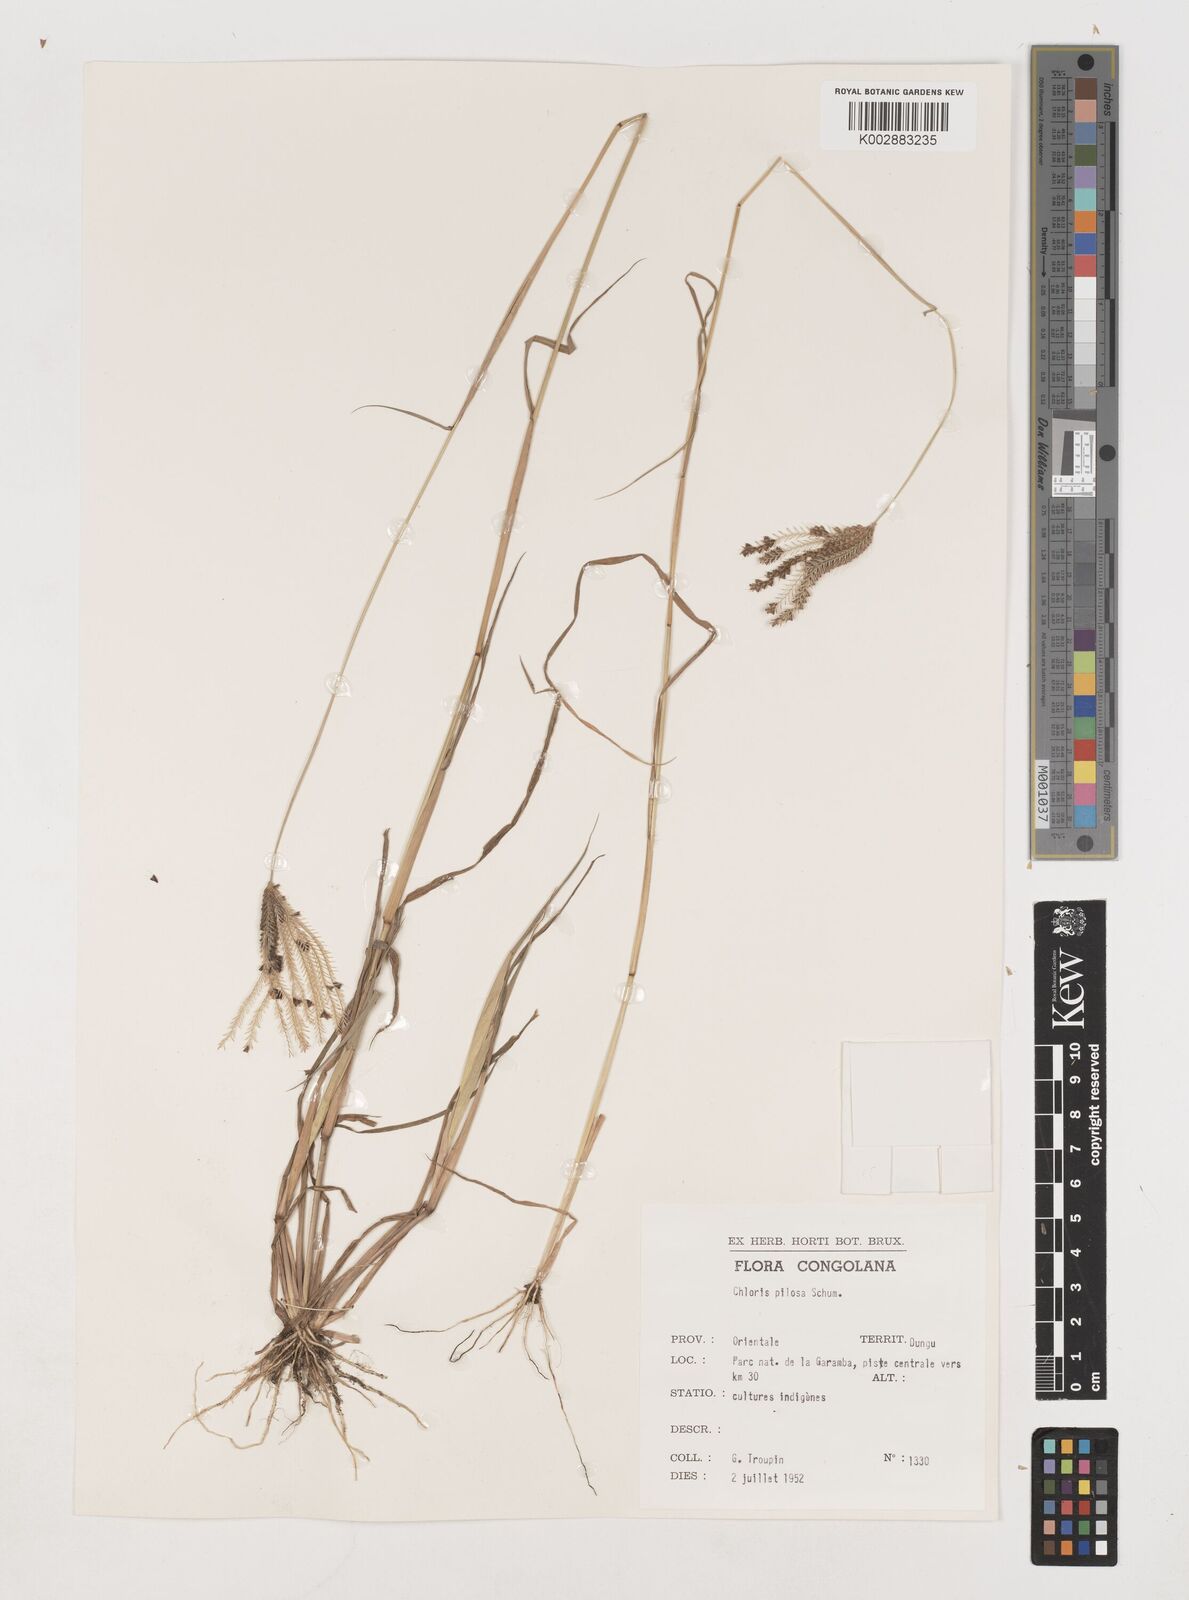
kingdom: Plantae
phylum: Tracheophyta
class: Liliopsida
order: Poales
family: Poaceae
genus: Chloris
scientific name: Chloris pilosa
